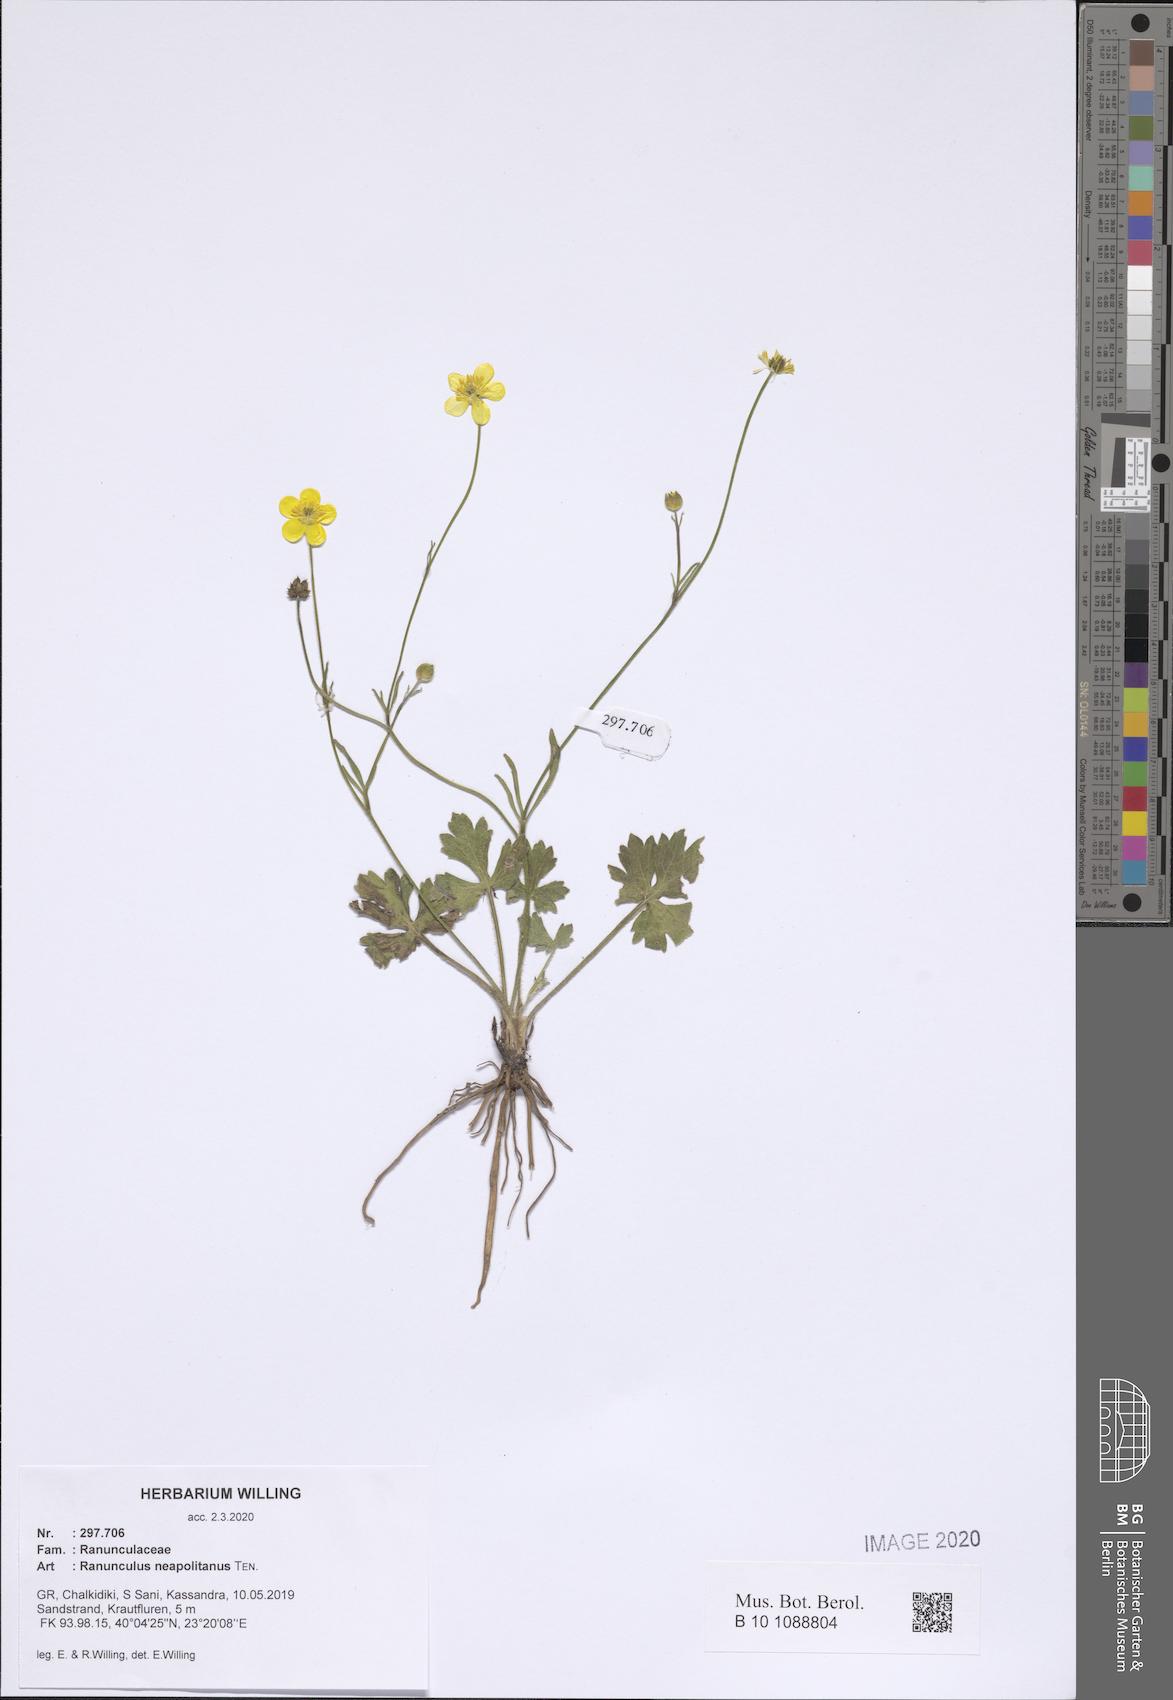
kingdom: Plantae
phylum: Tracheophyta
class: Magnoliopsida
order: Ranunculales
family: Ranunculaceae
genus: Ranunculus
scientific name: Ranunculus neapolitanus
